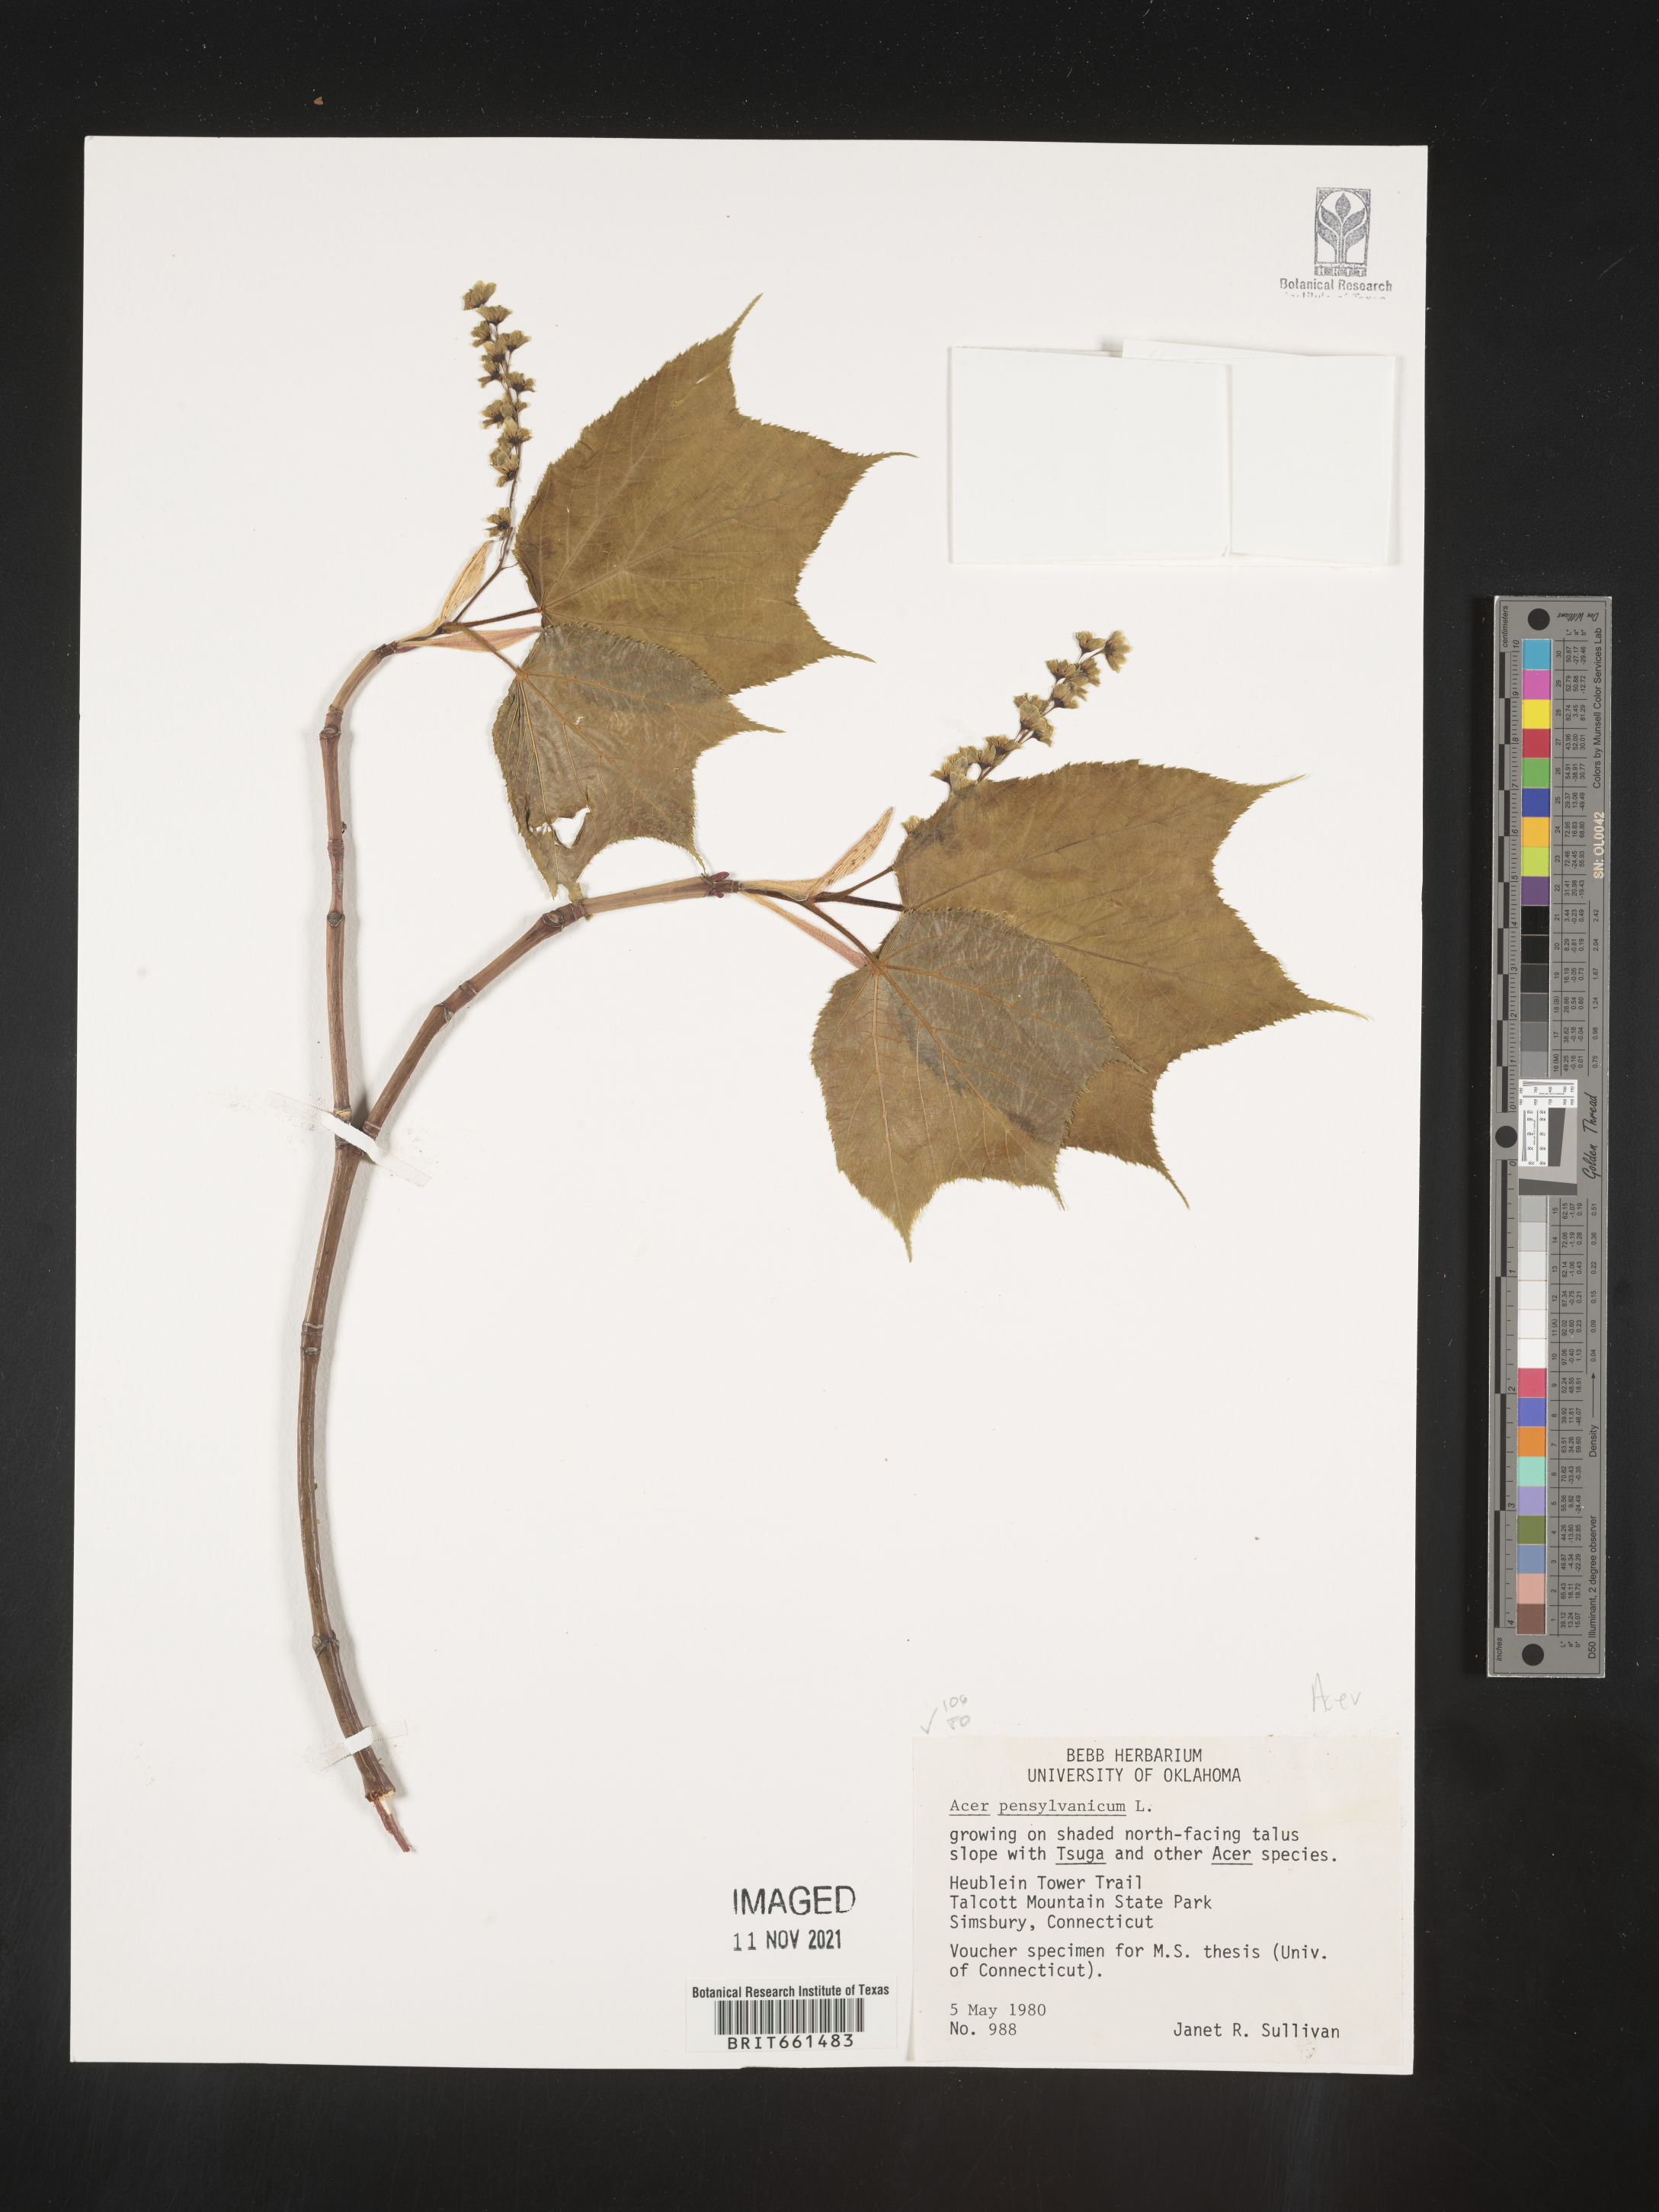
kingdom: Plantae
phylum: Tracheophyta
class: Magnoliopsida
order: Sapindales
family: Sapindaceae
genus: Acer
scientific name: Acer pensylvanicum
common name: Moosewood
